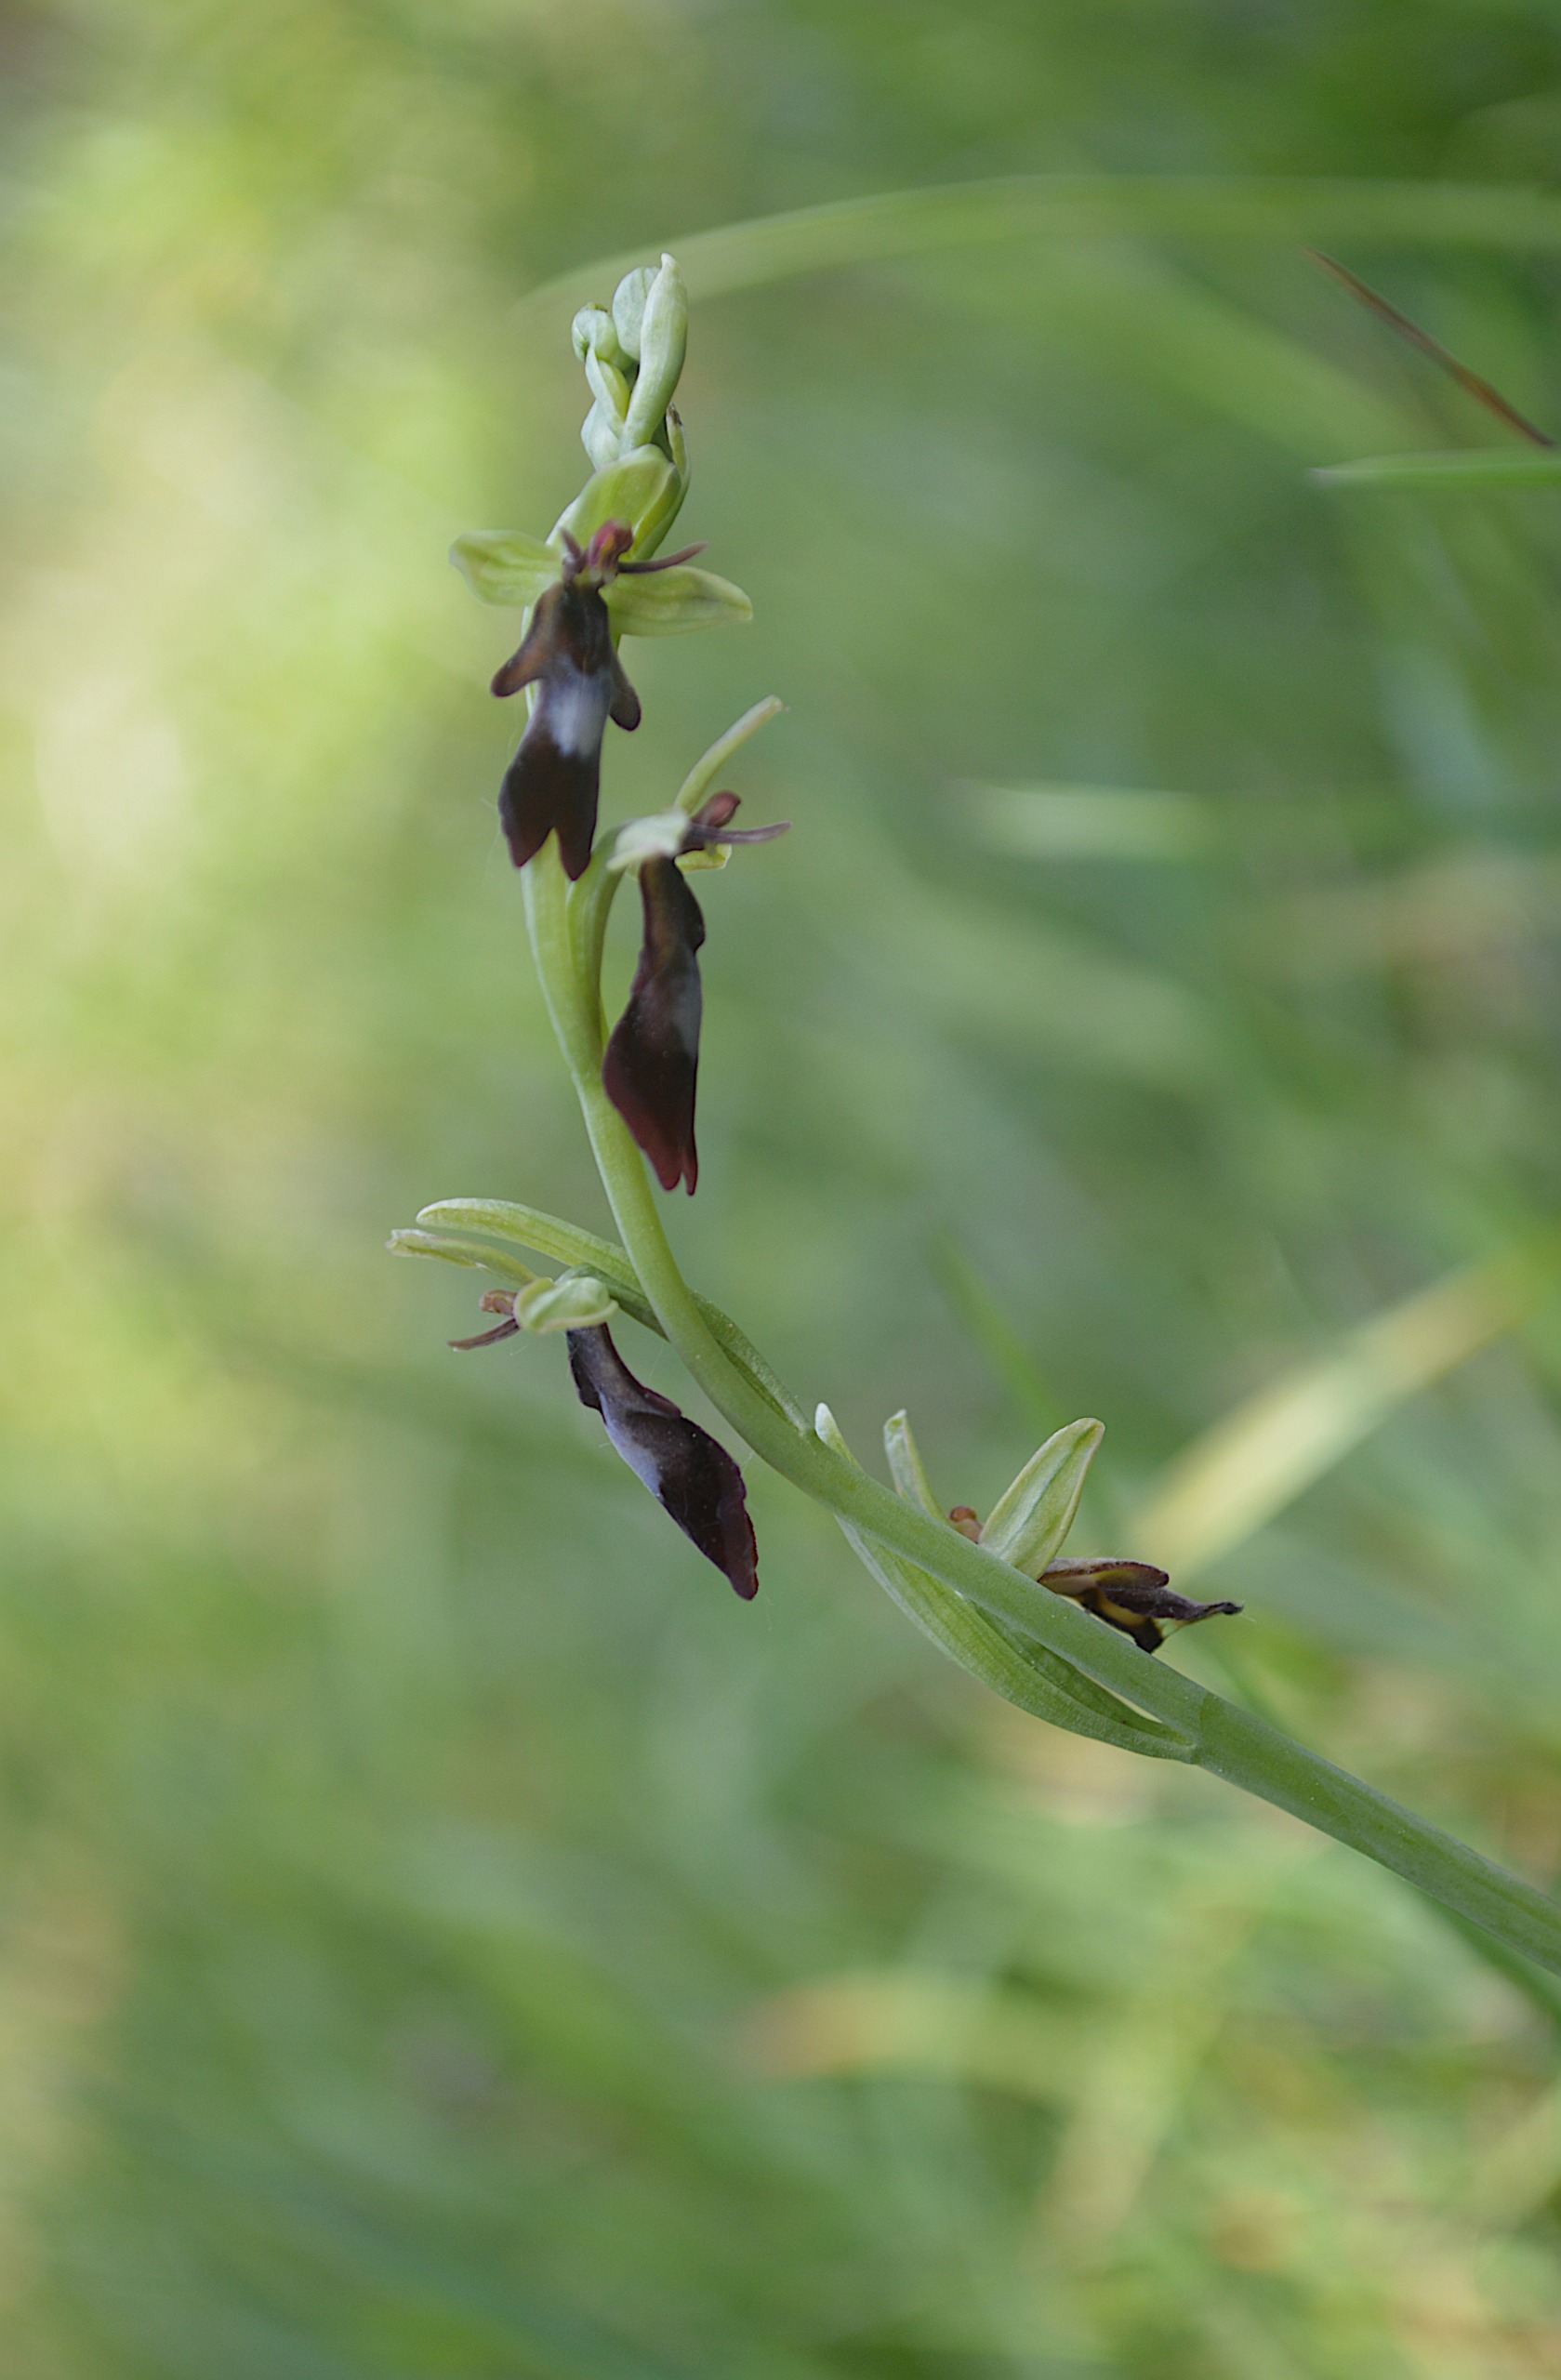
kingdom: Plantae
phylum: Tracheophyta
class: Liliopsida
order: Asparagales
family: Orchidaceae
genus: Ophrys
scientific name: Ophrys insectifera
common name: Flueblomst
